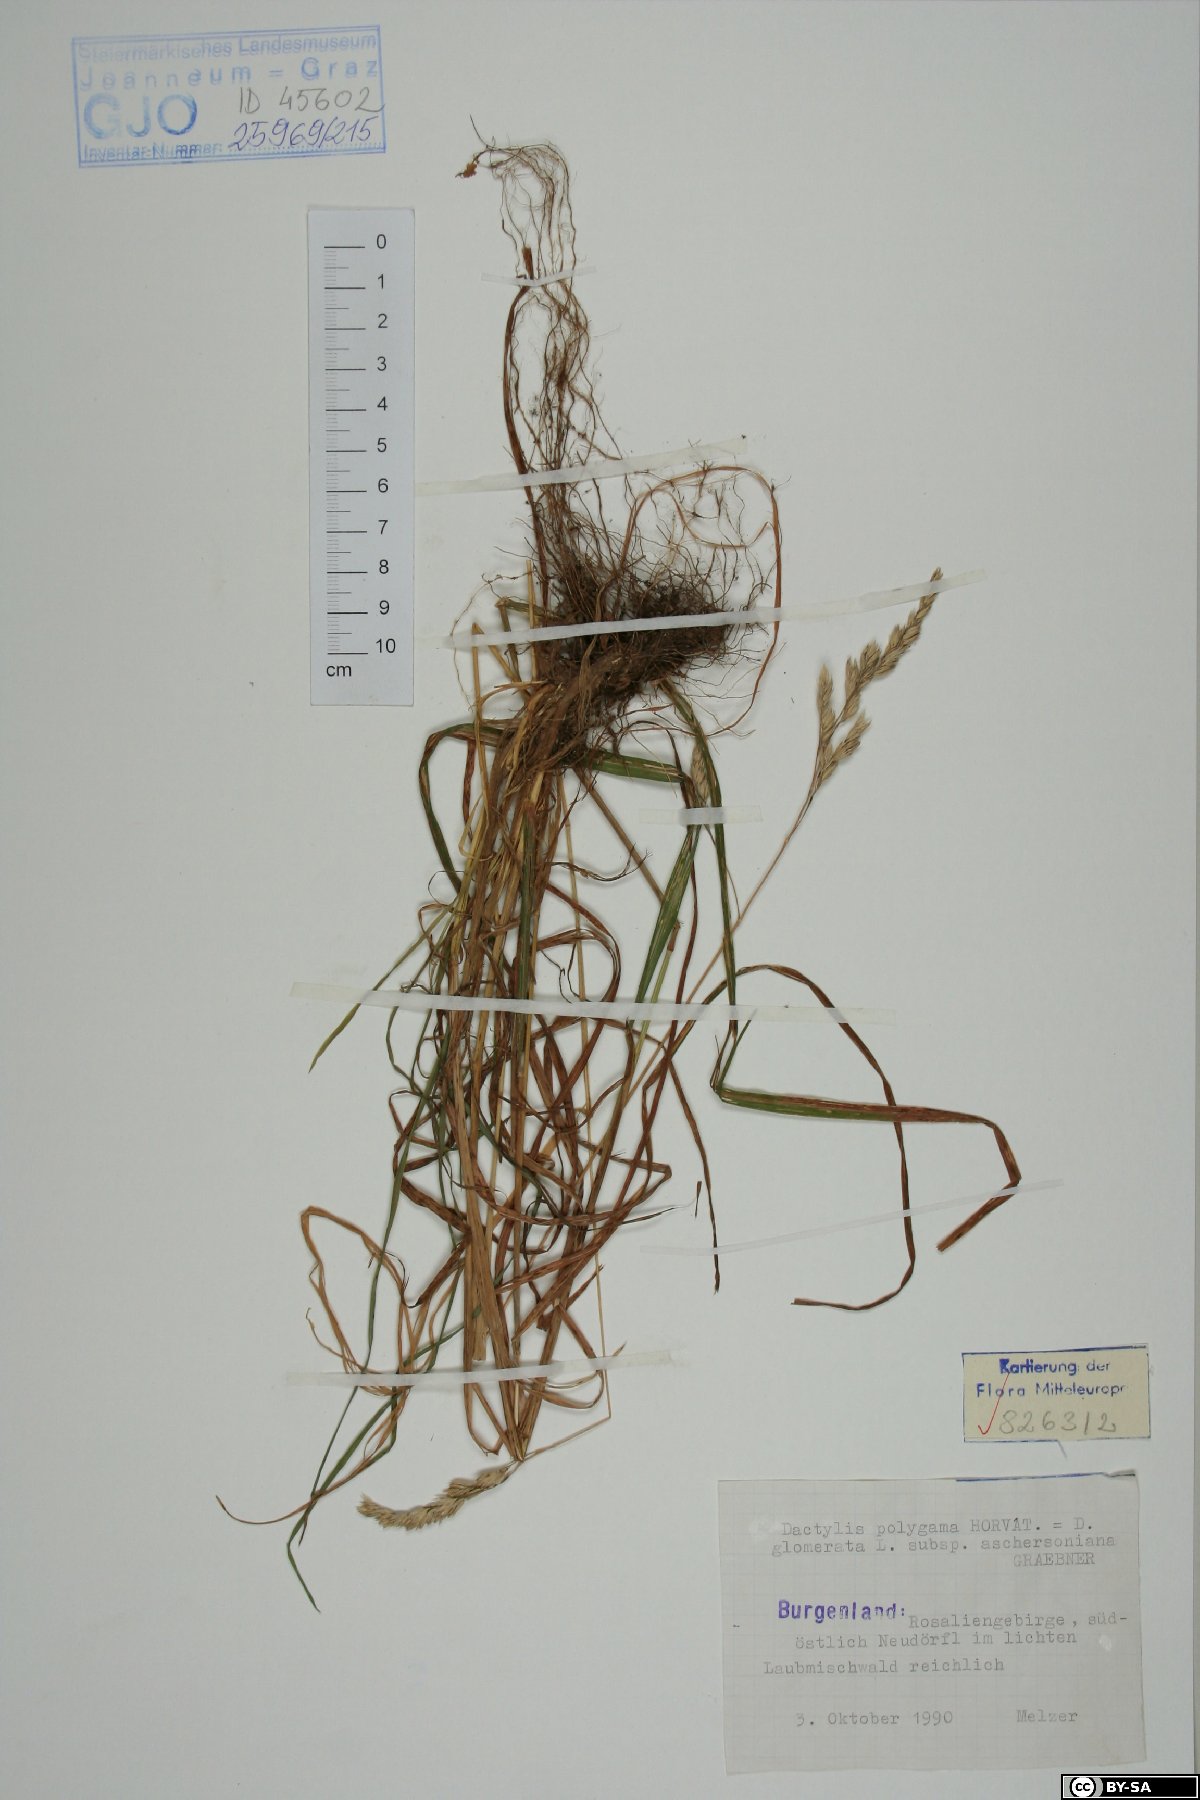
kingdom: Plantae
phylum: Tracheophyta
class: Liliopsida
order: Poales
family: Poaceae
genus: Dactylis
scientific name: Dactylis glomerata
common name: Orchardgrass
